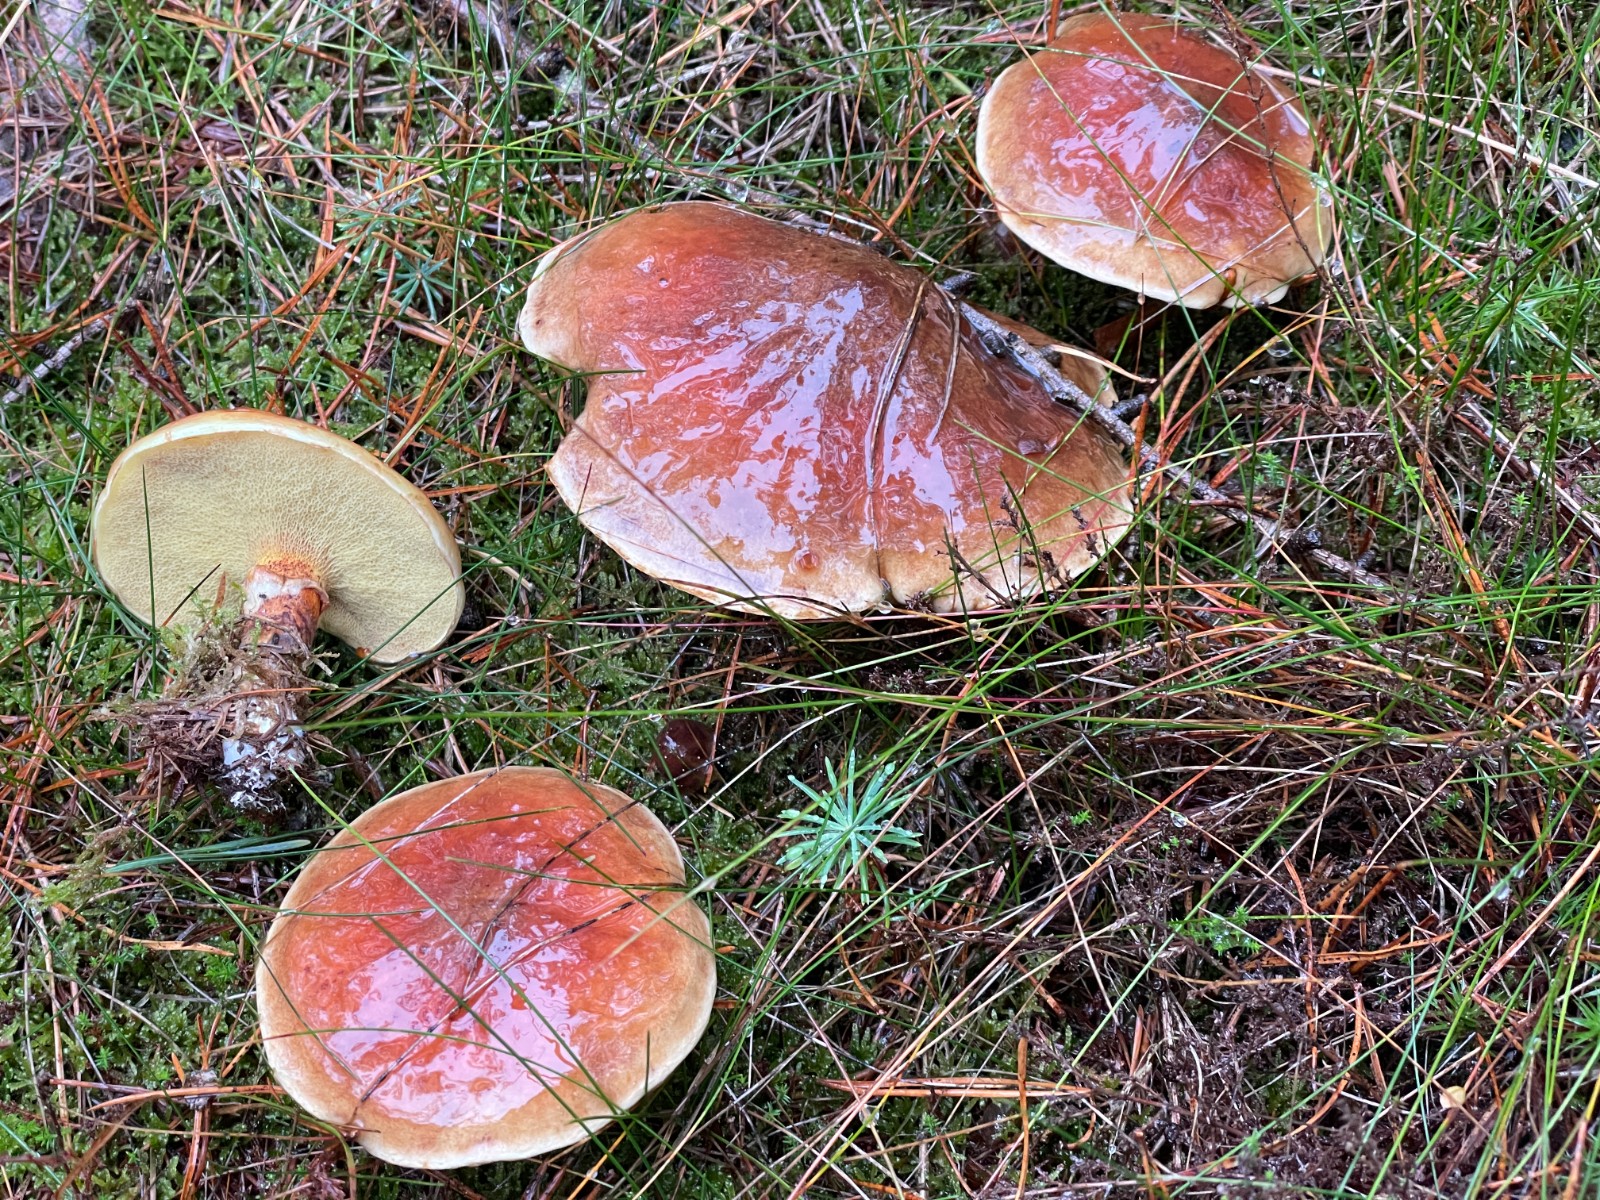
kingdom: Fungi
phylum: Basidiomycota
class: Agaricomycetes
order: Boletales
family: Suillaceae
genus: Suillus
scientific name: Suillus grevillei
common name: Larch bolete
